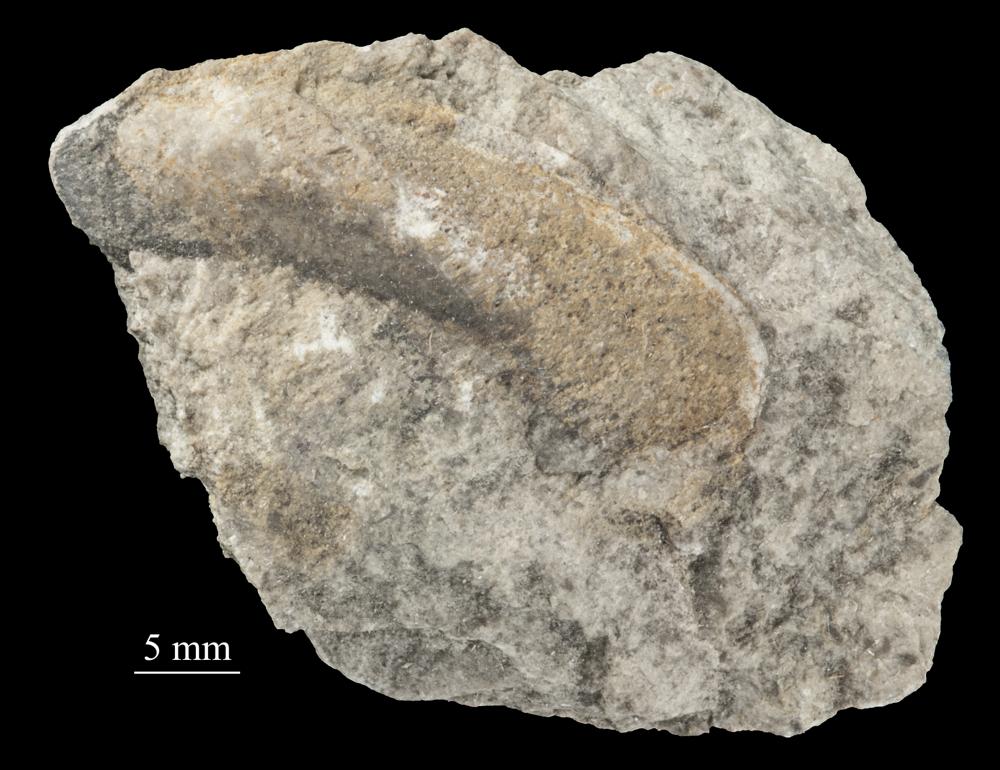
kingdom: Animalia
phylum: Mollusca
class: Bivalvia
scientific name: Bivalvia
